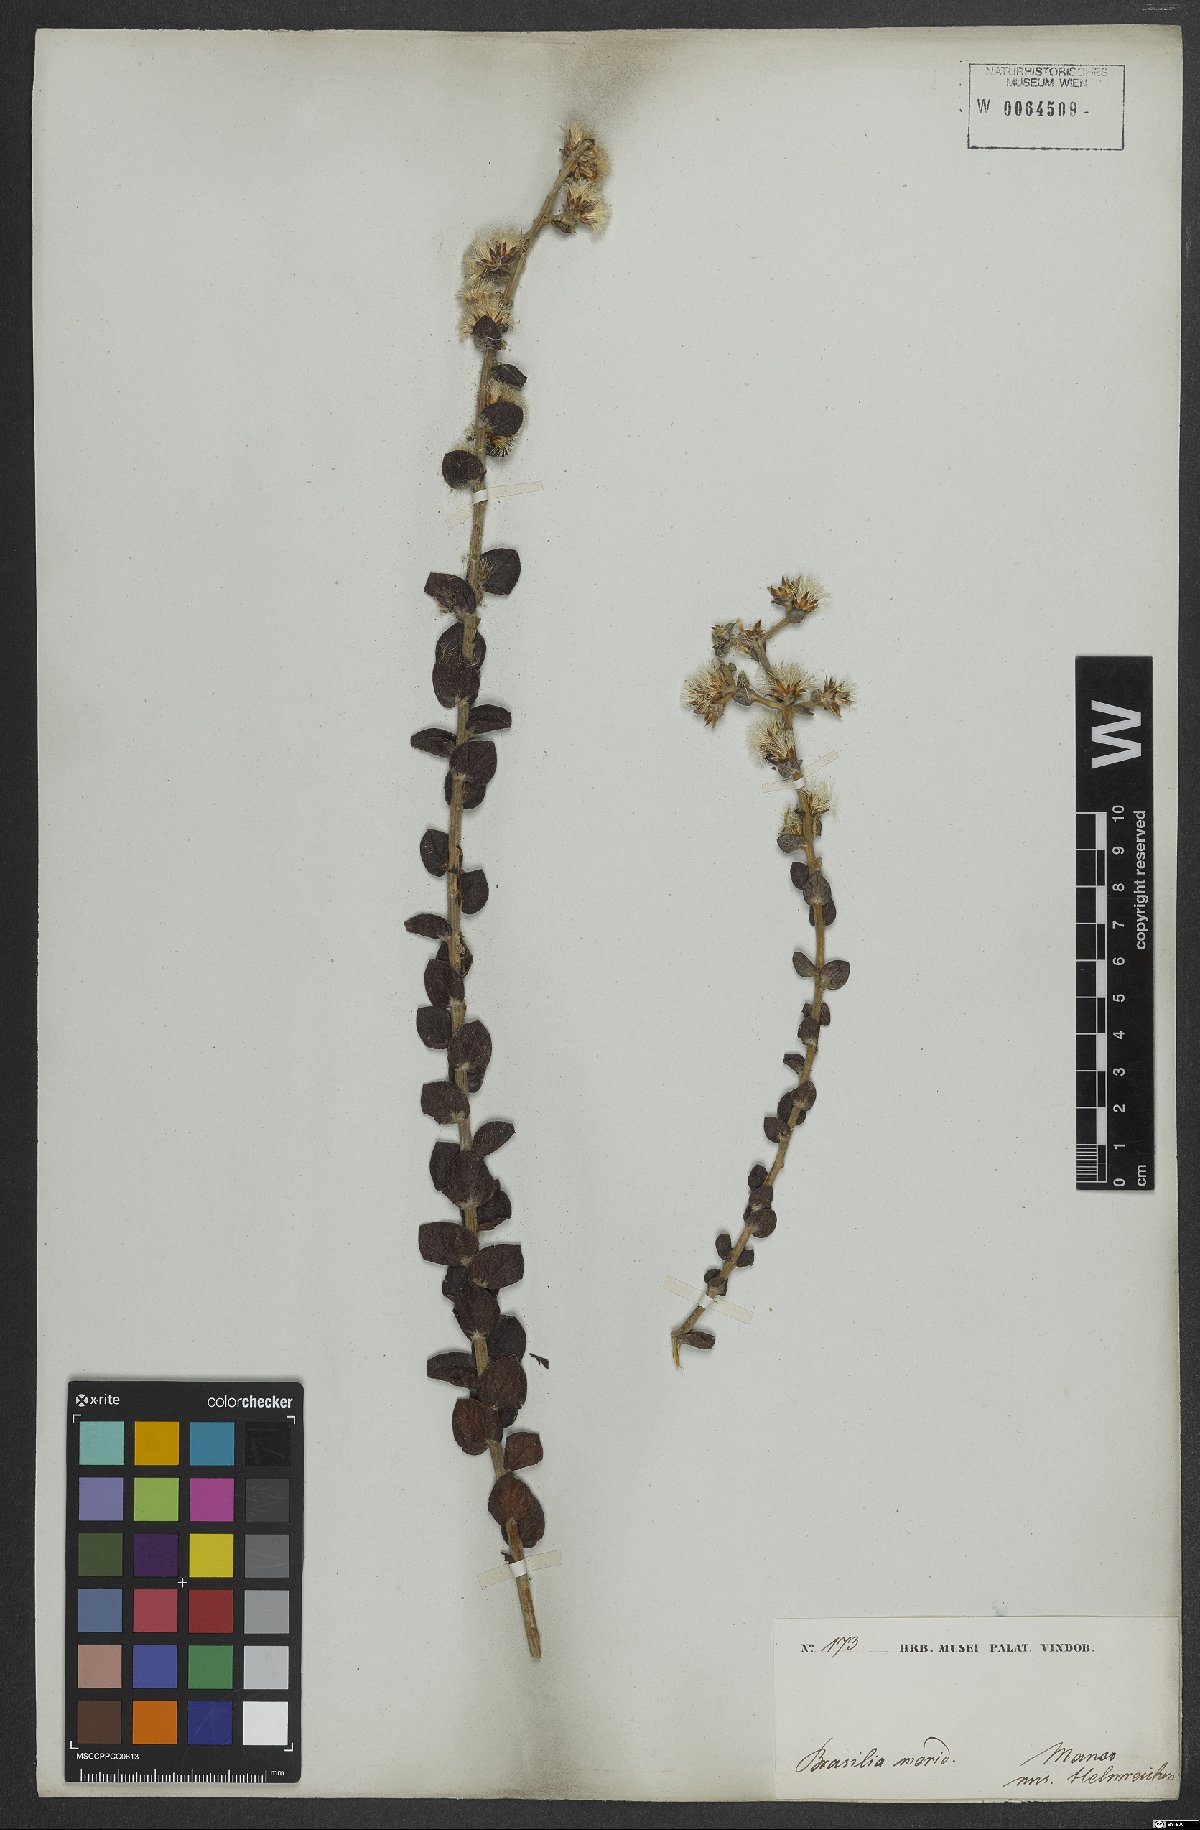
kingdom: Plantae
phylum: Tracheophyta
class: Magnoliopsida
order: Asterales
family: Asteraceae
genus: Lepidaploa
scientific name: Lepidaploa barbata
